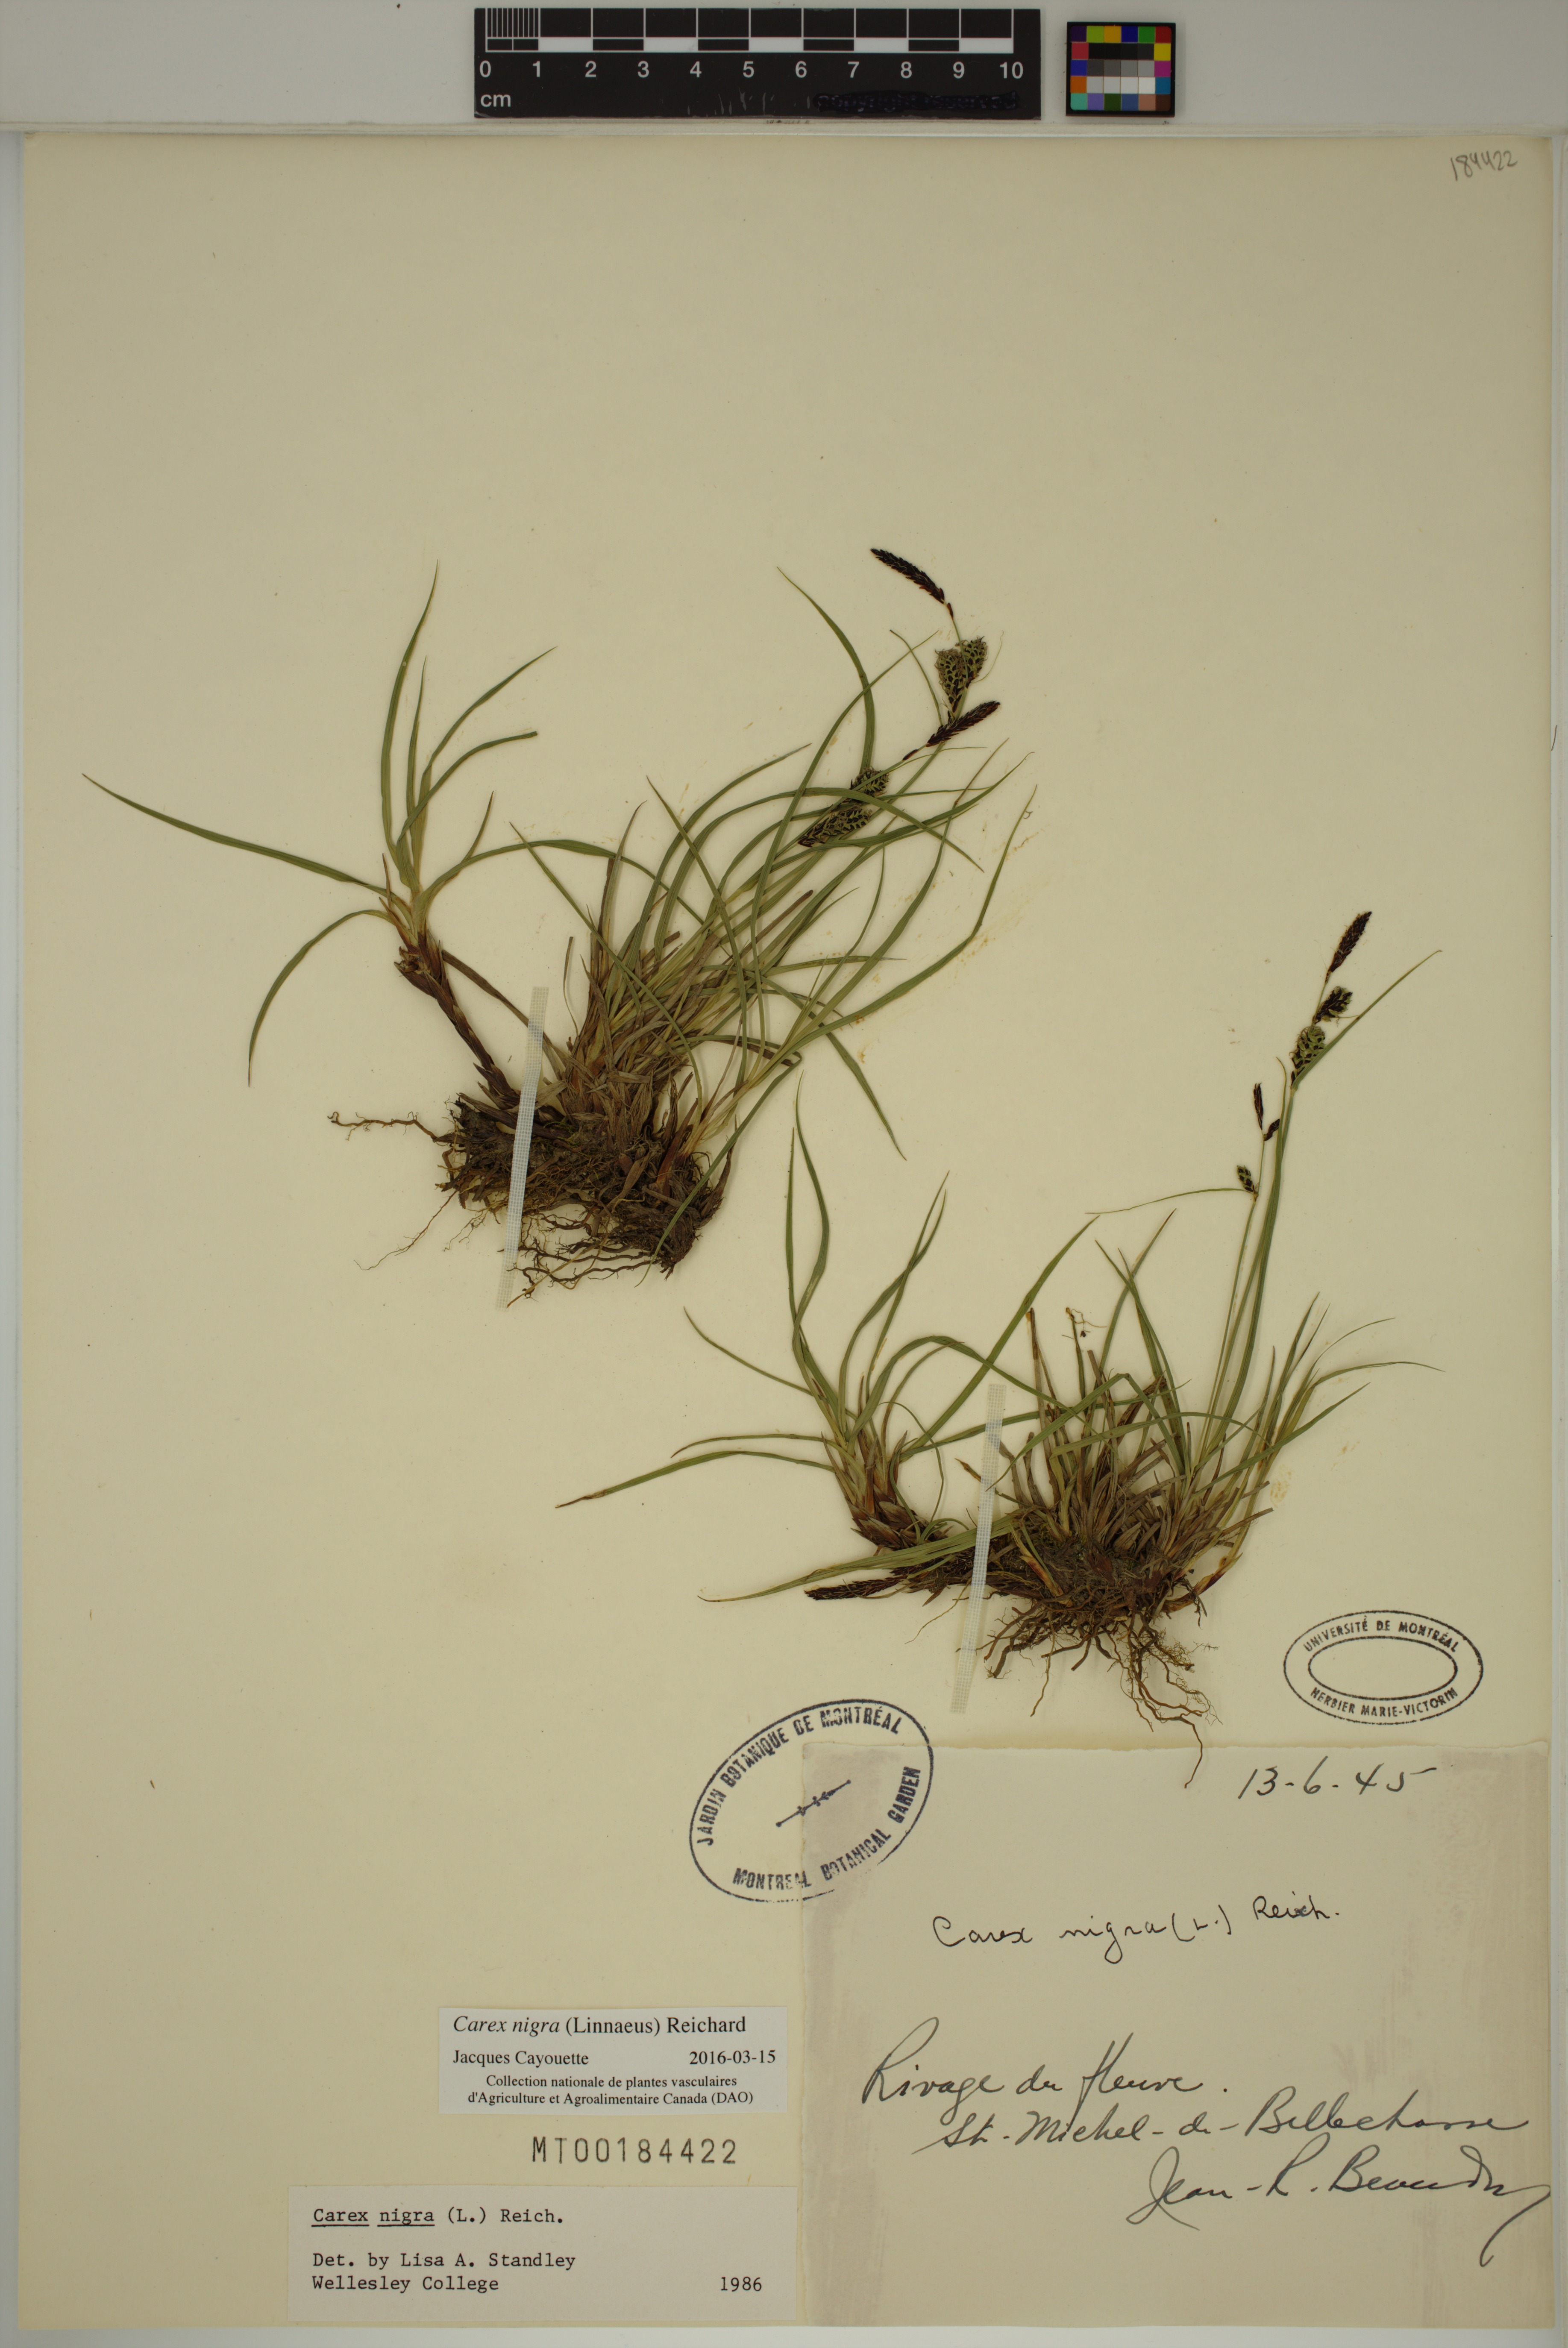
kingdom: Plantae
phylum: Tracheophyta
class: Liliopsida
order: Poales
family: Cyperaceae
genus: Carex
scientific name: Carex nigra
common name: Common sedge
